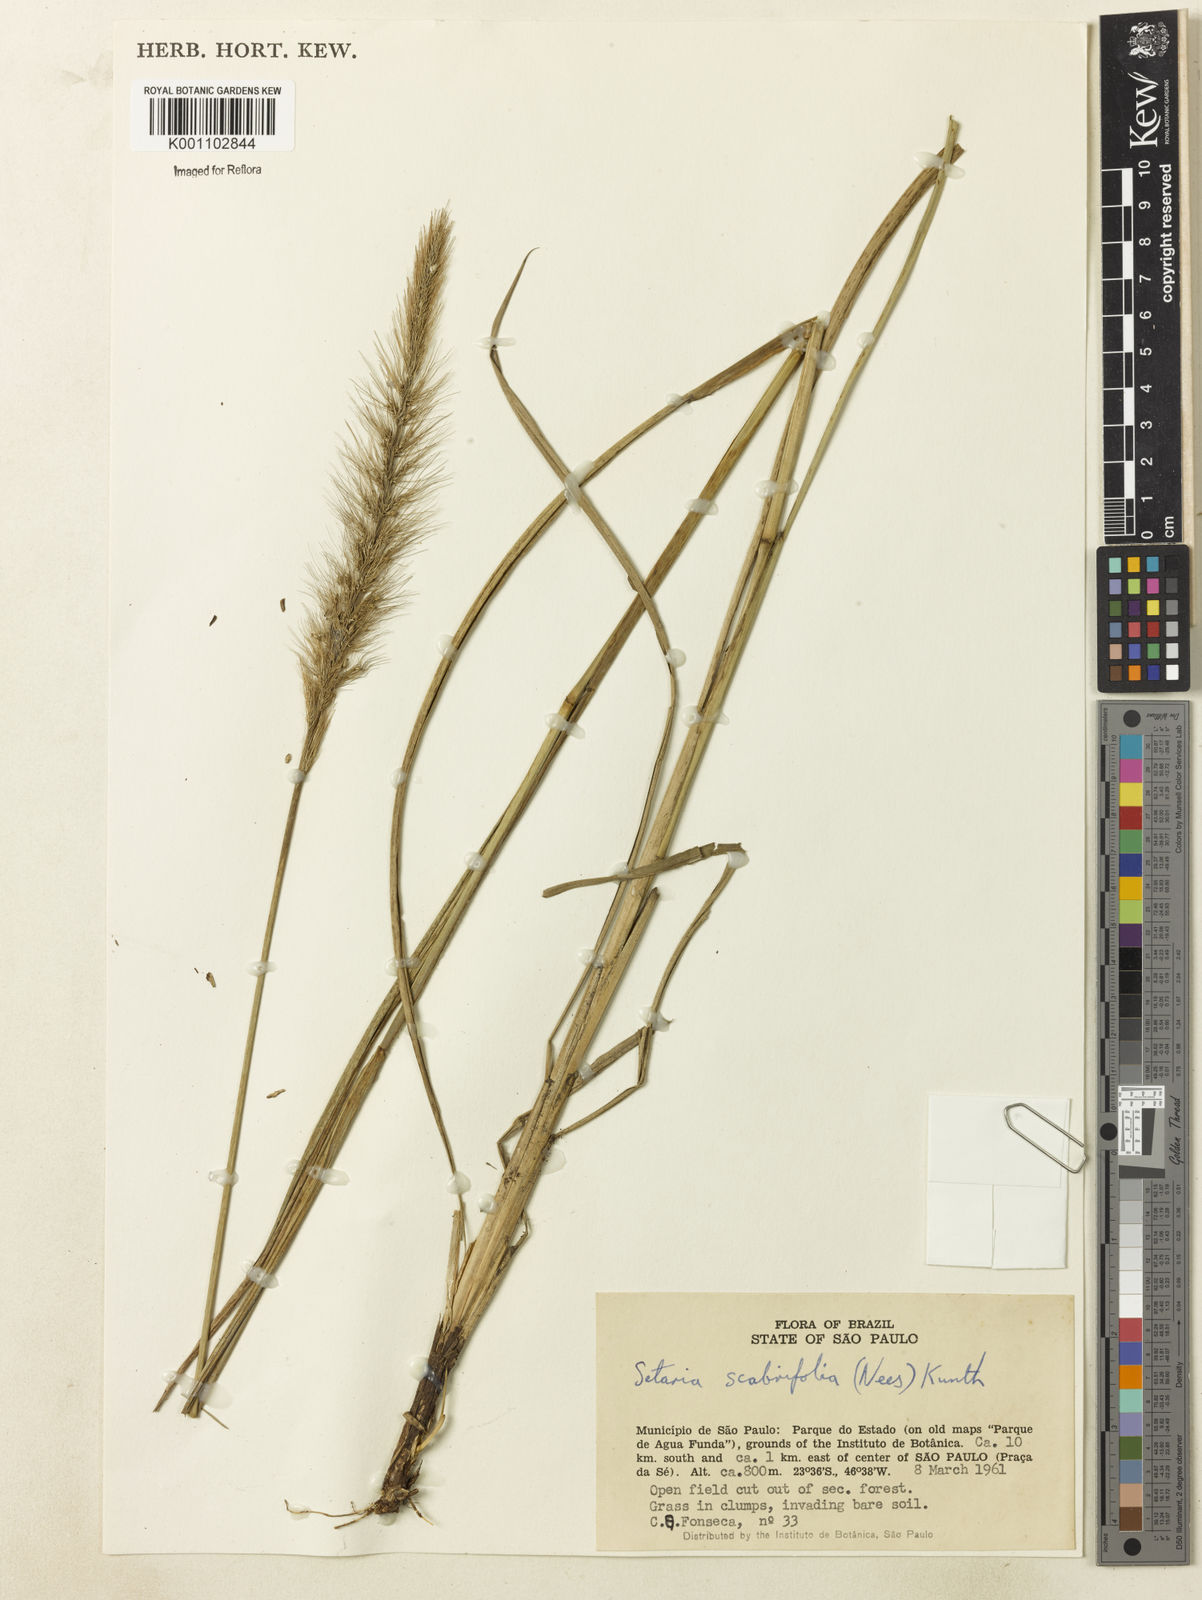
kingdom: Plantae
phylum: Tracheophyta
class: Liliopsida
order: Poales
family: Poaceae
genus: Setaria
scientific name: Setaria scabrifolia
